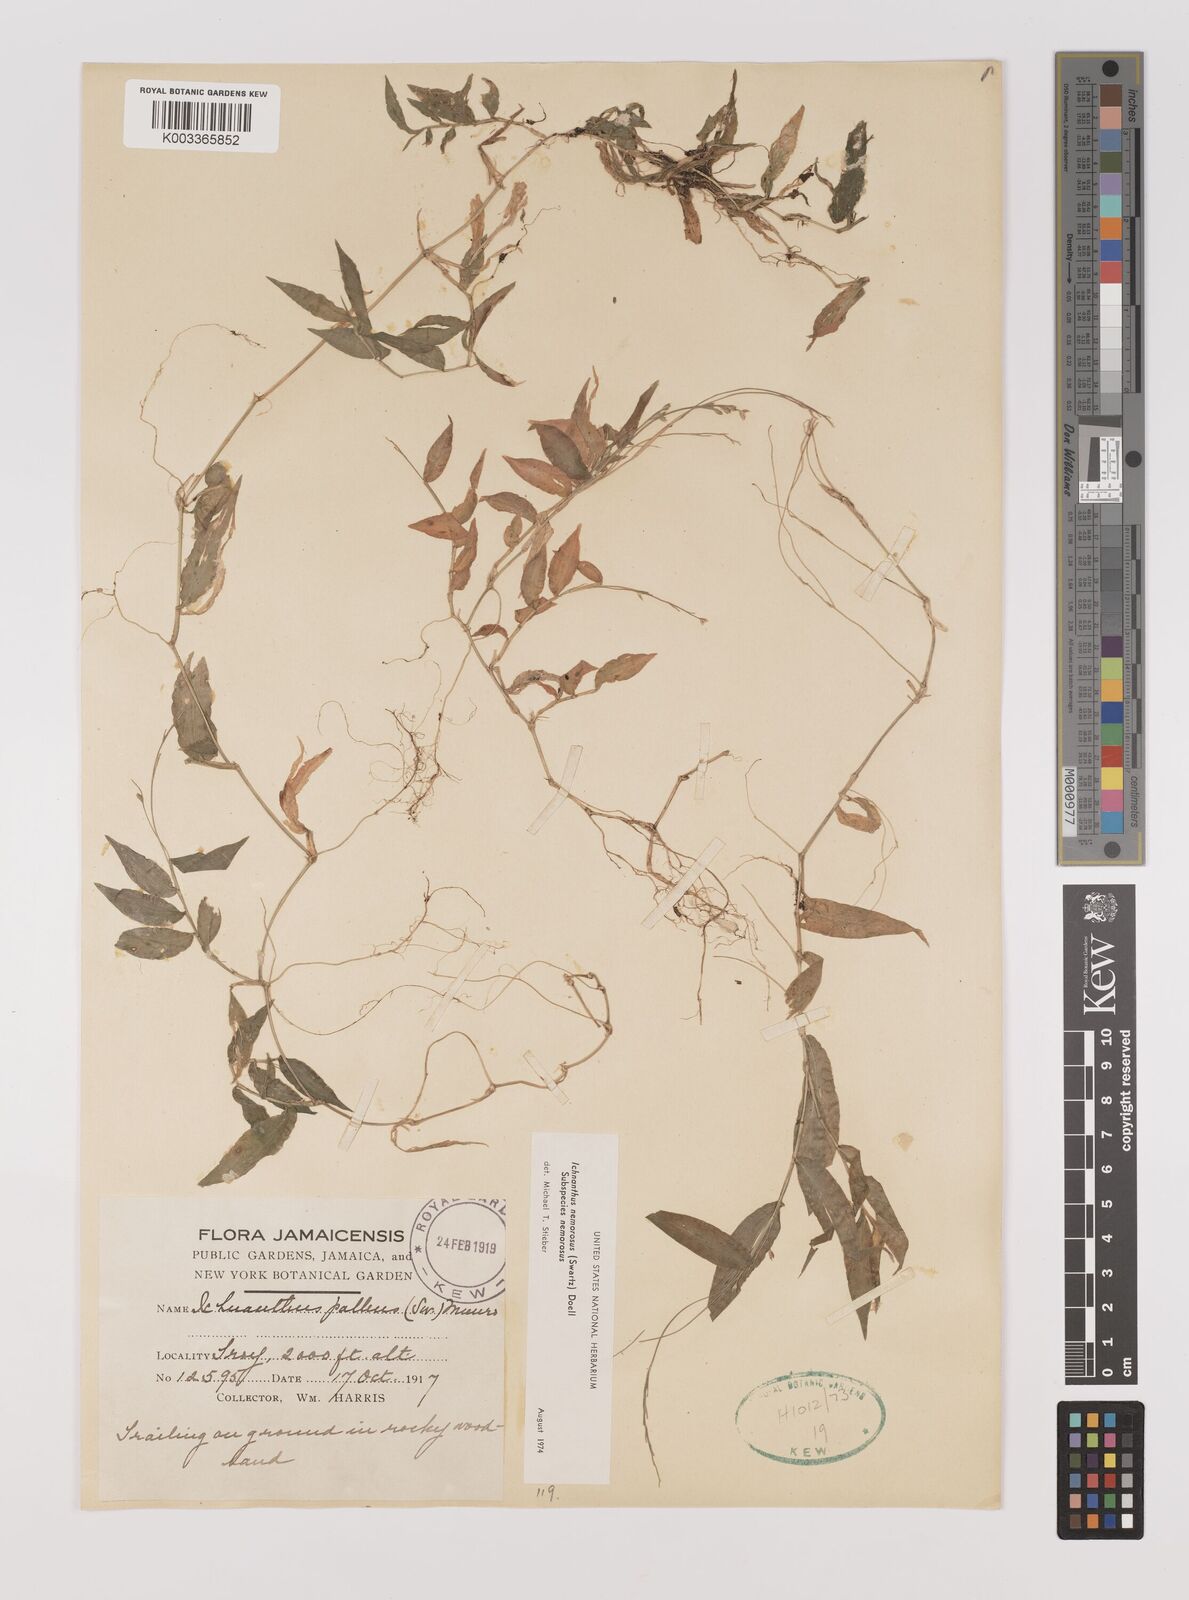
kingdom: Plantae
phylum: Tracheophyta
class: Liliopsida
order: Poales
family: Poaceae
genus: Ichnanthus
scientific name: Ichnanthus nemorosus
